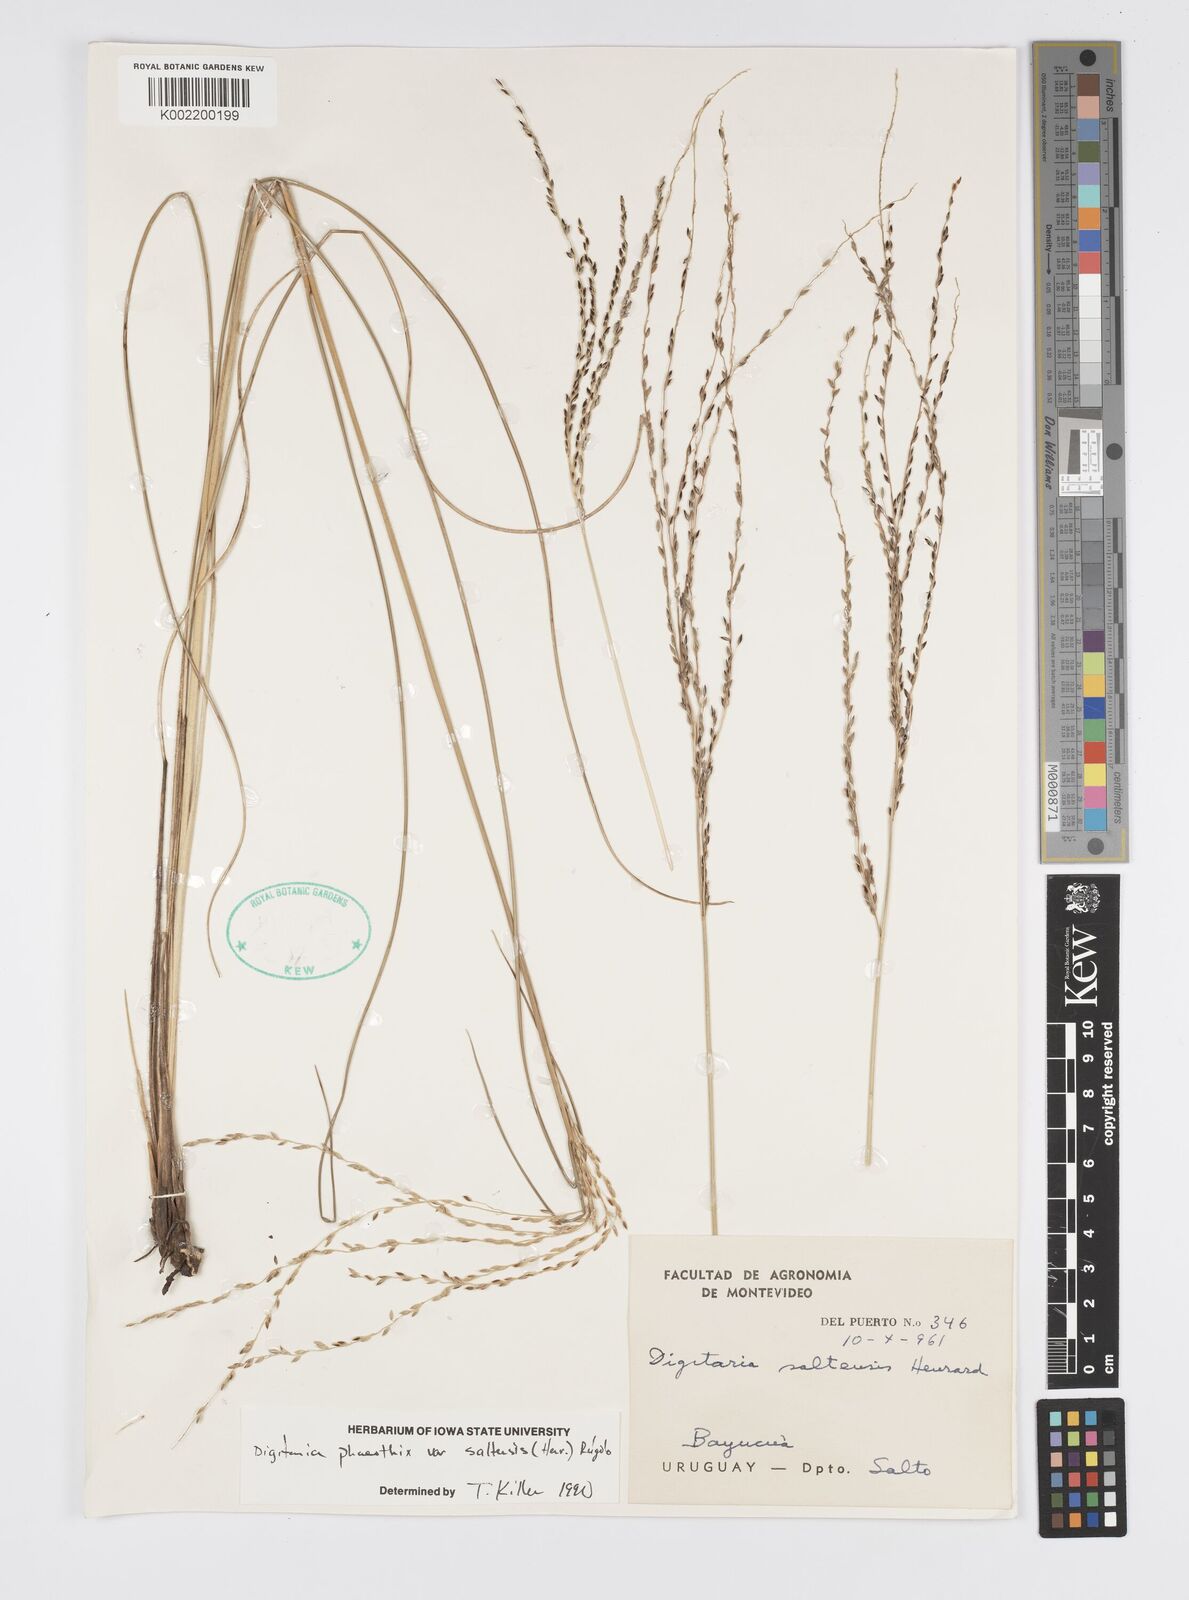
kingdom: Plantae
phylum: Tracheophyta
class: Liliopsida
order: Poales
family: Poaceae
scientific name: Poaceae
